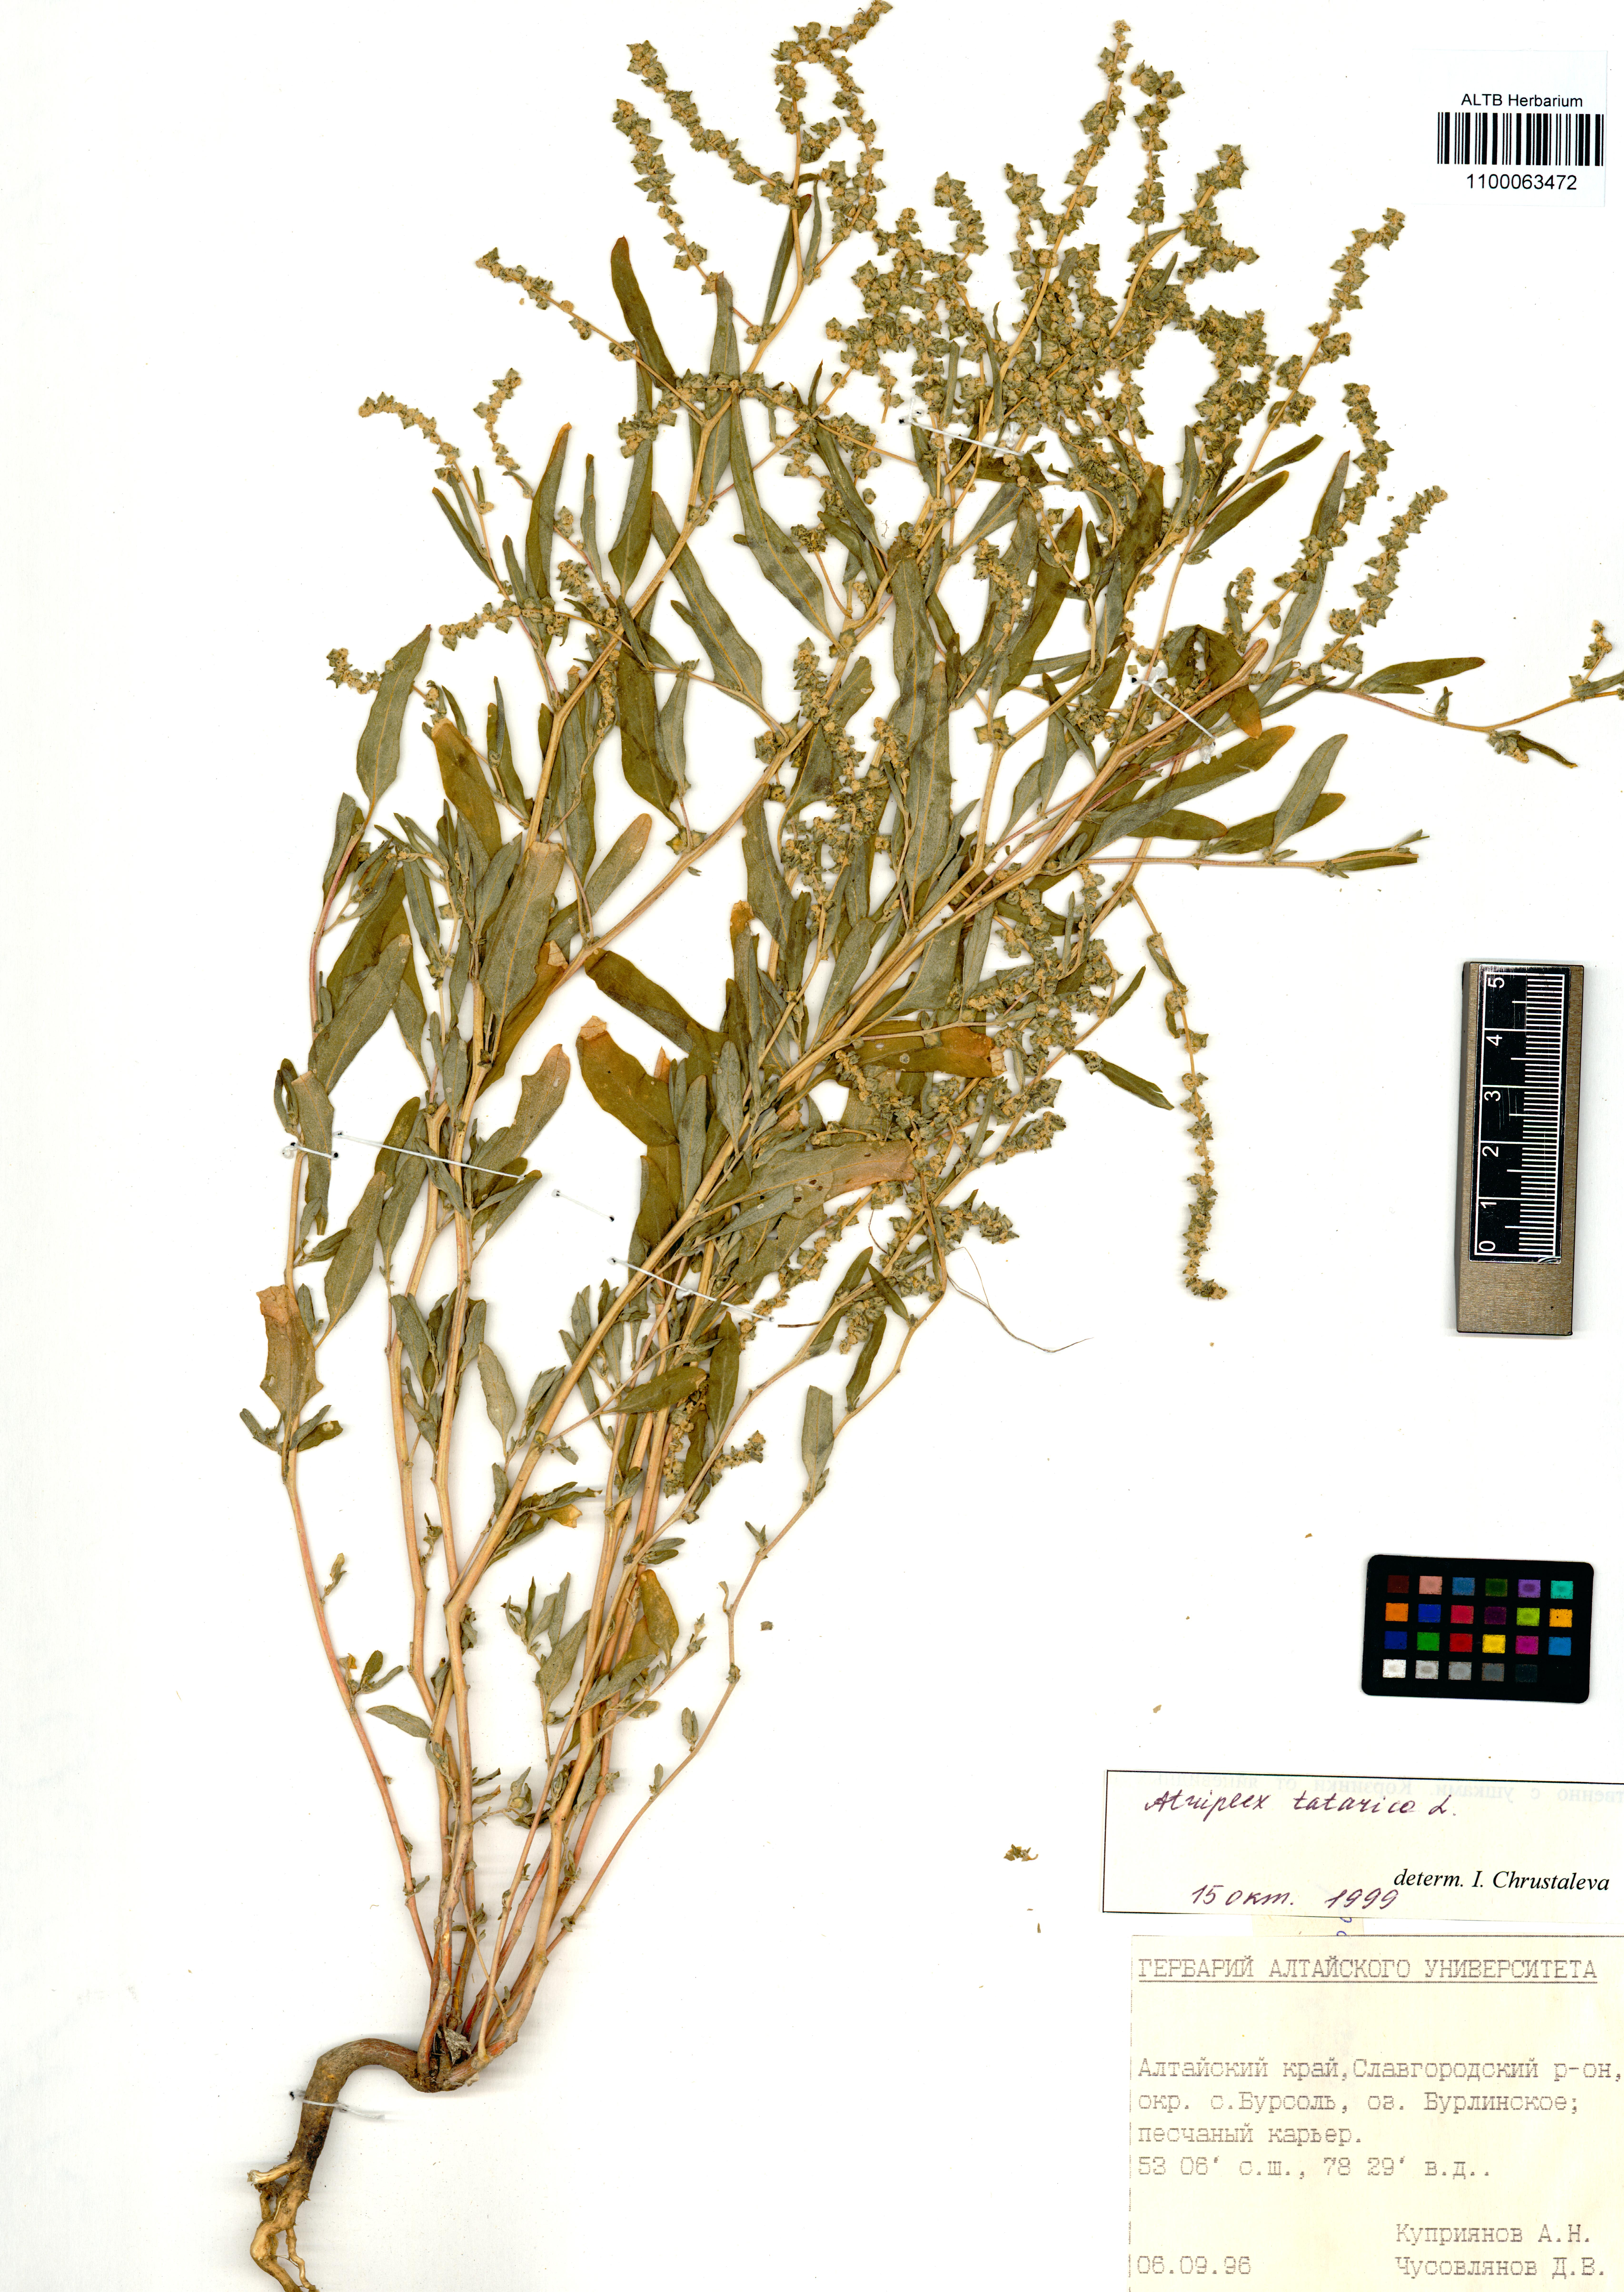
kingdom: Plantae
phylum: Tracheophyta
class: Magnoliopsida
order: Caryophyllales
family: Amaranthaceae
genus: Atriplex
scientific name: Atriplex tatarica
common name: Tatarian orache
